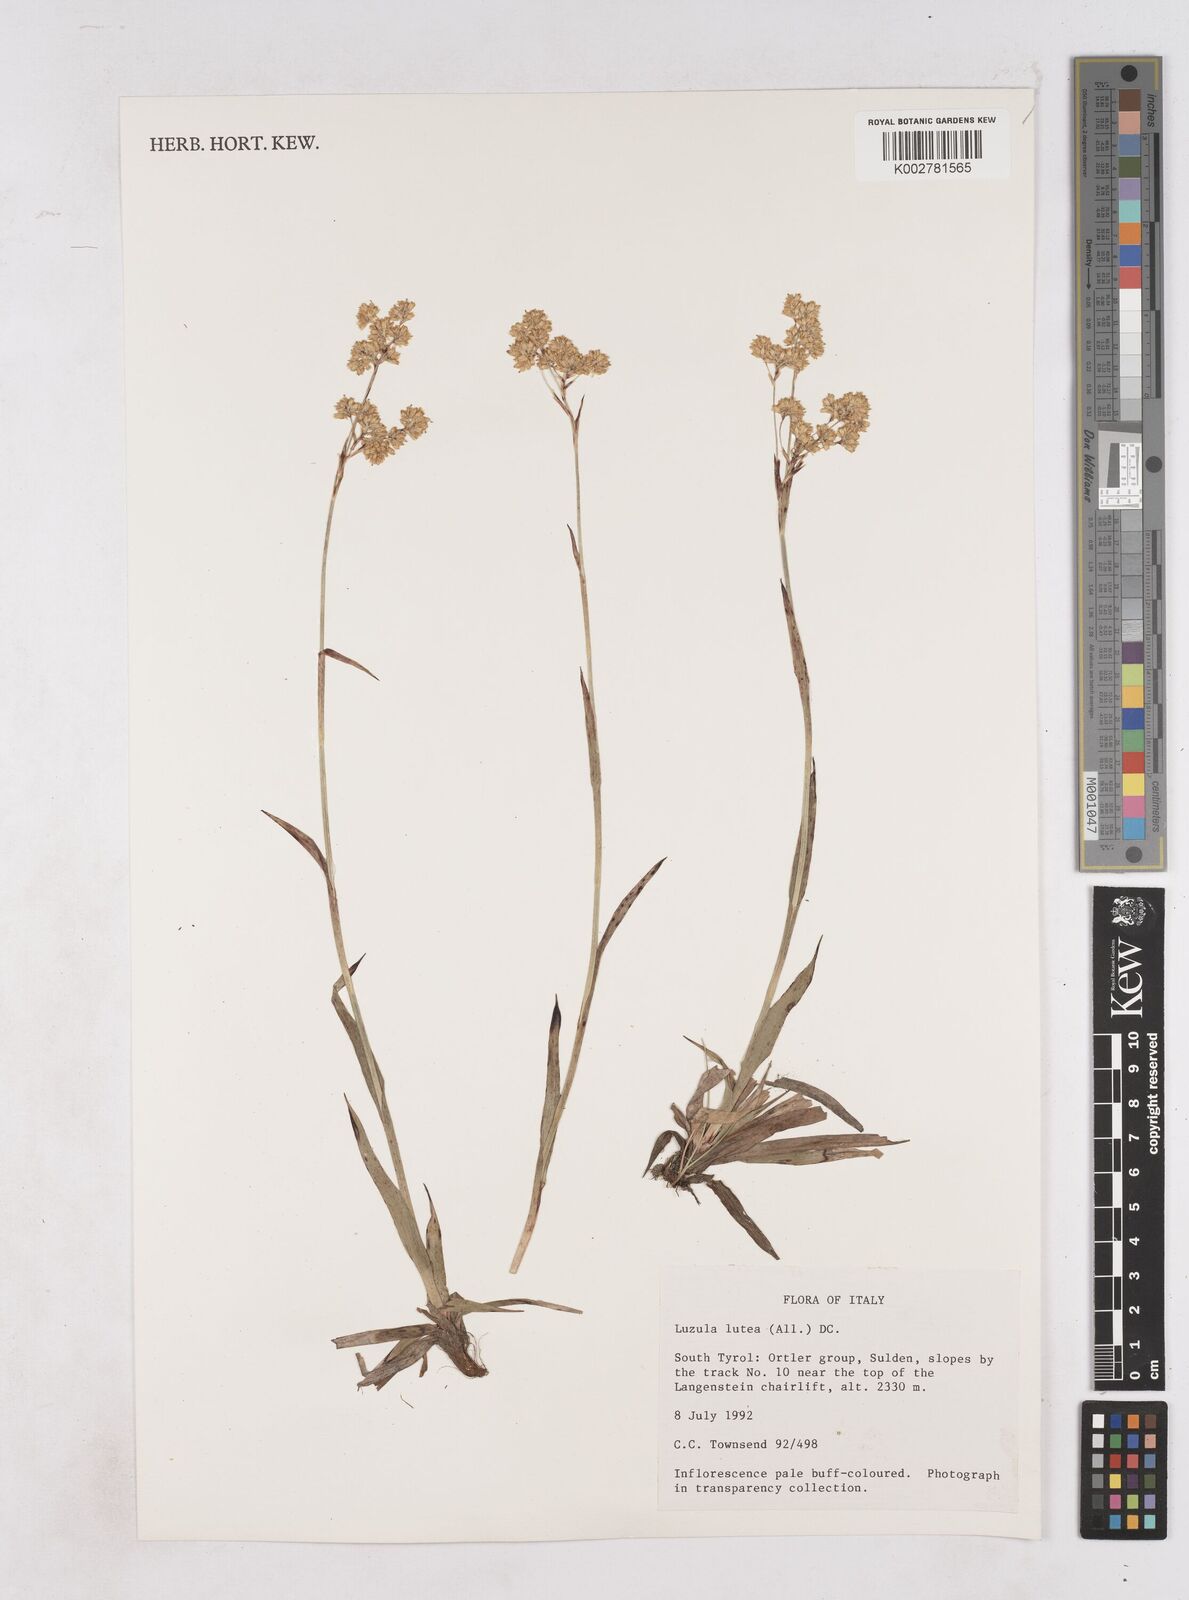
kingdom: Plantae
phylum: Tracheophyta
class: Liliopsida
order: Poales
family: Juncaceae
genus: Luzula
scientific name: Luzula lutea
